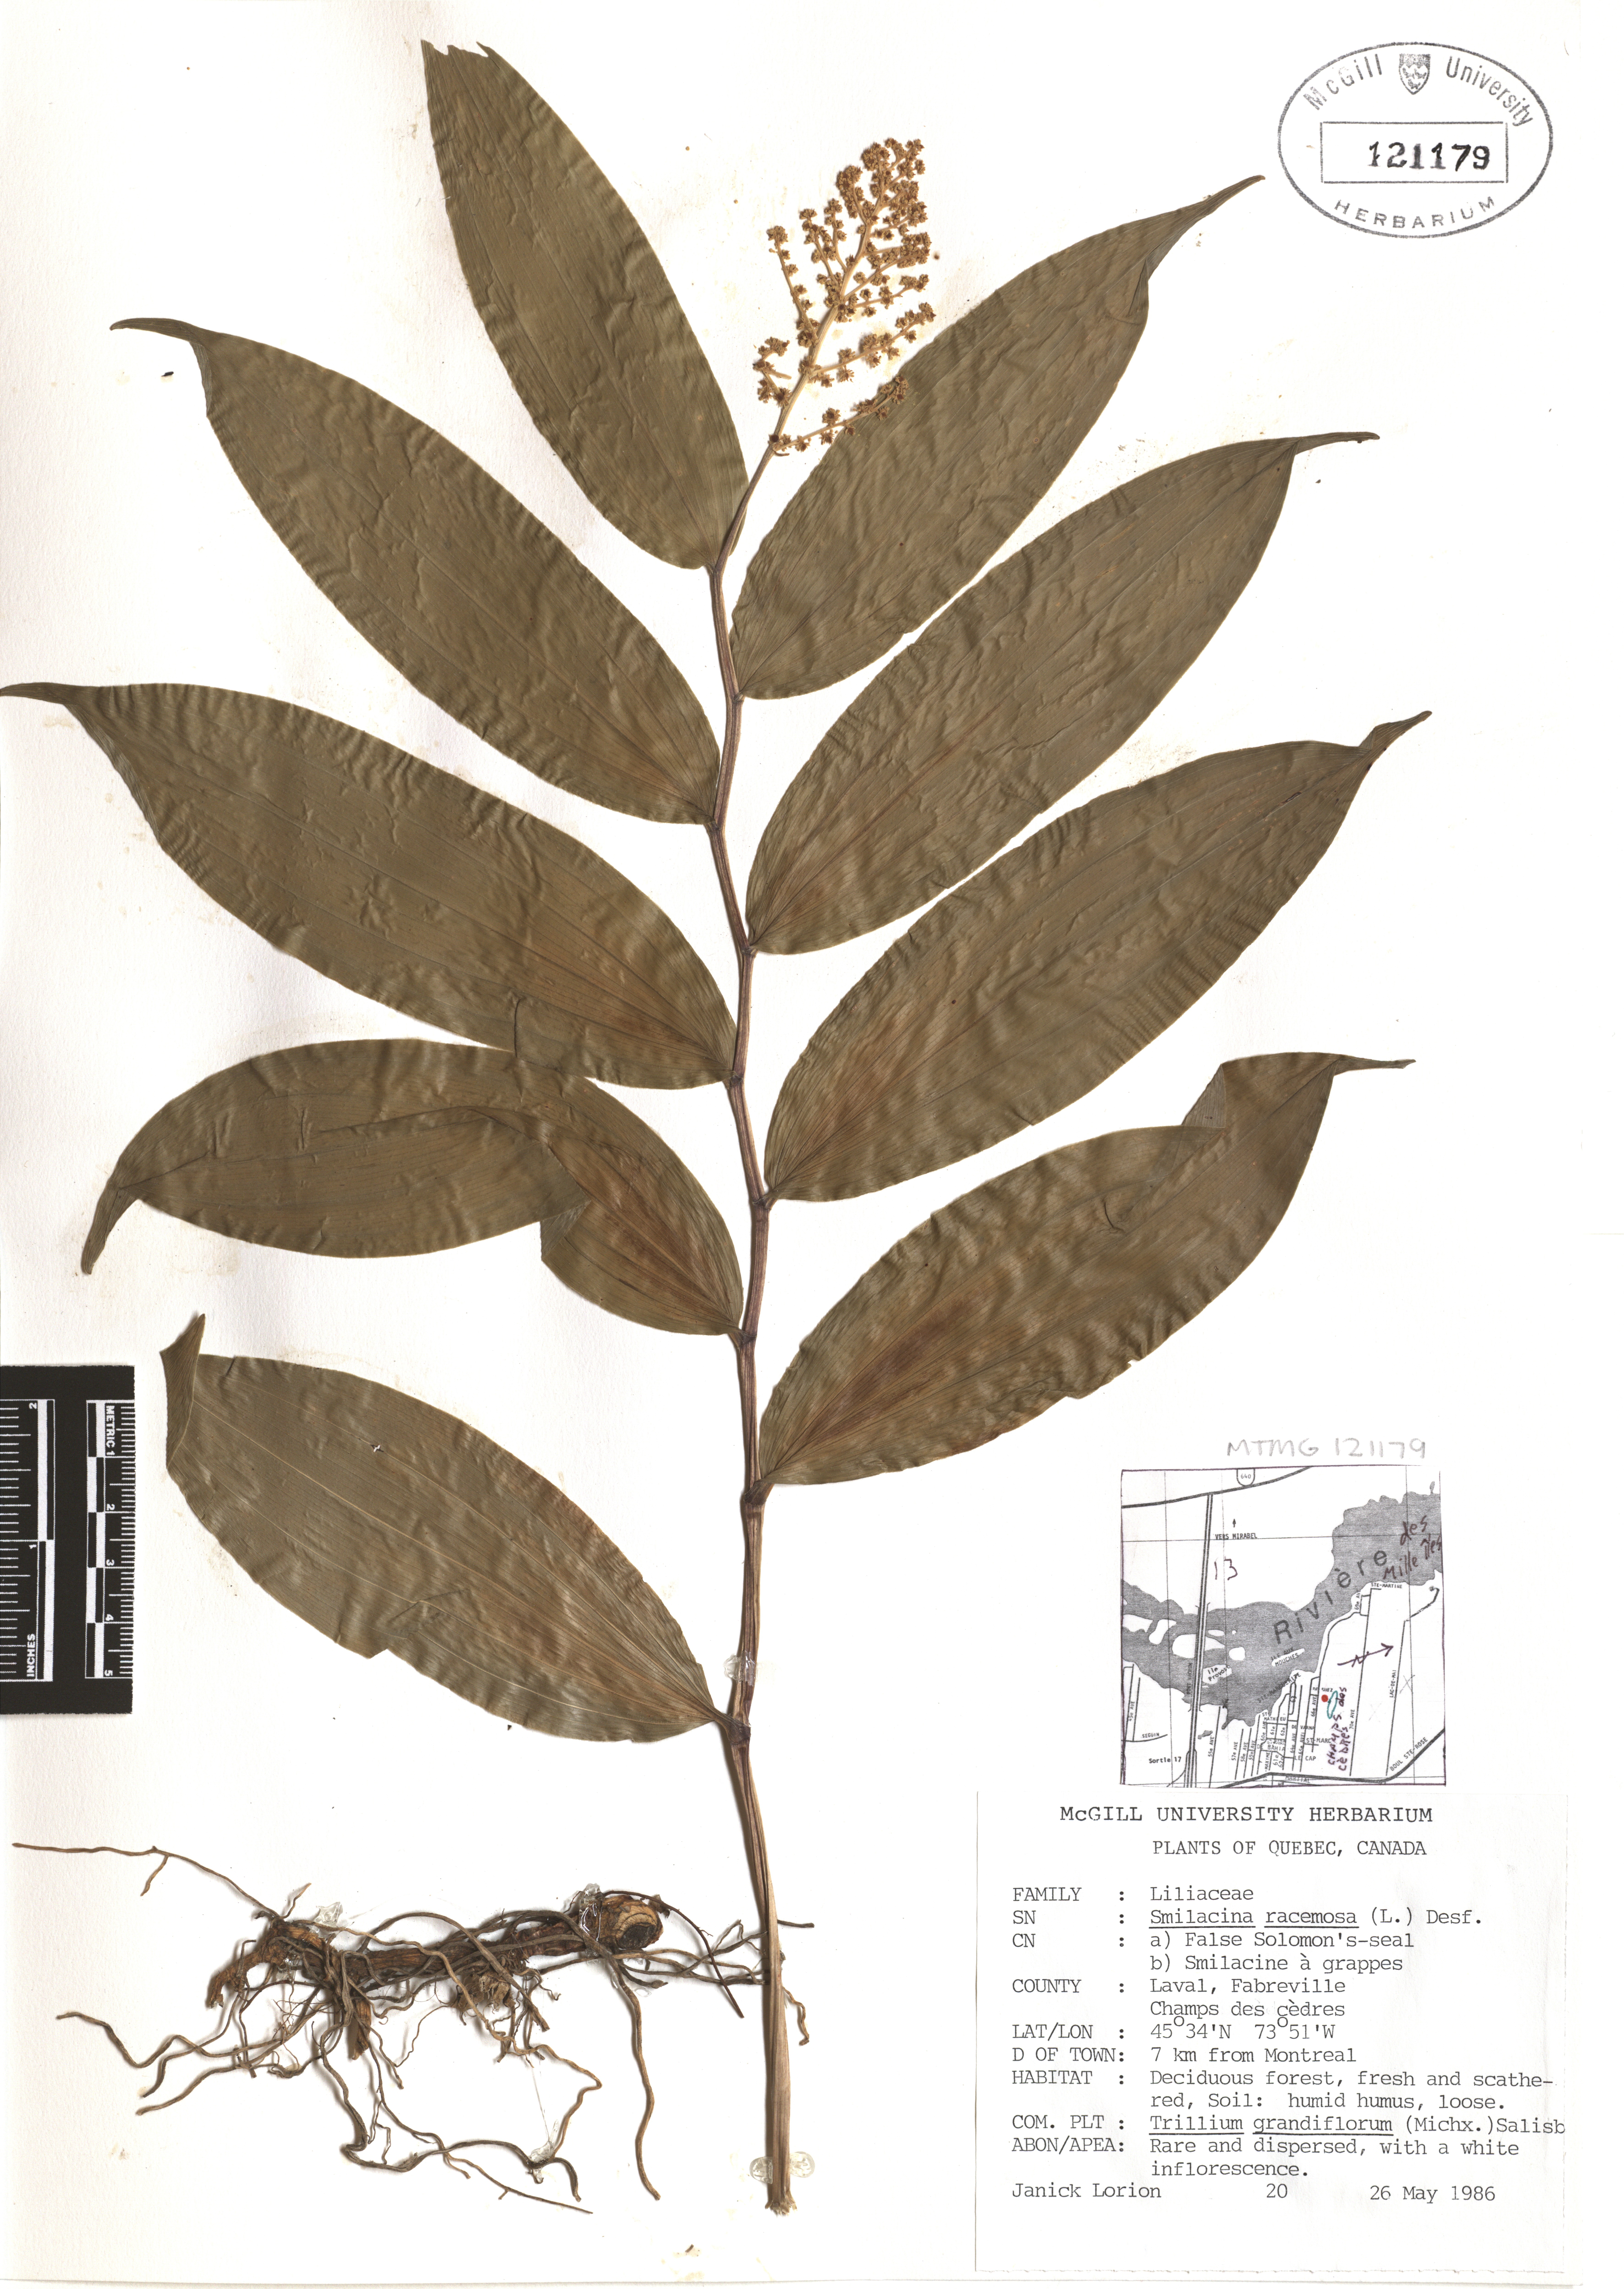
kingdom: Plantae
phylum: Tracheophyta
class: Liliopsida
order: Asparagales
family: Asparagaceae
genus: Maianthemum
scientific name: Maianthemum racemosum
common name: False spikenard
